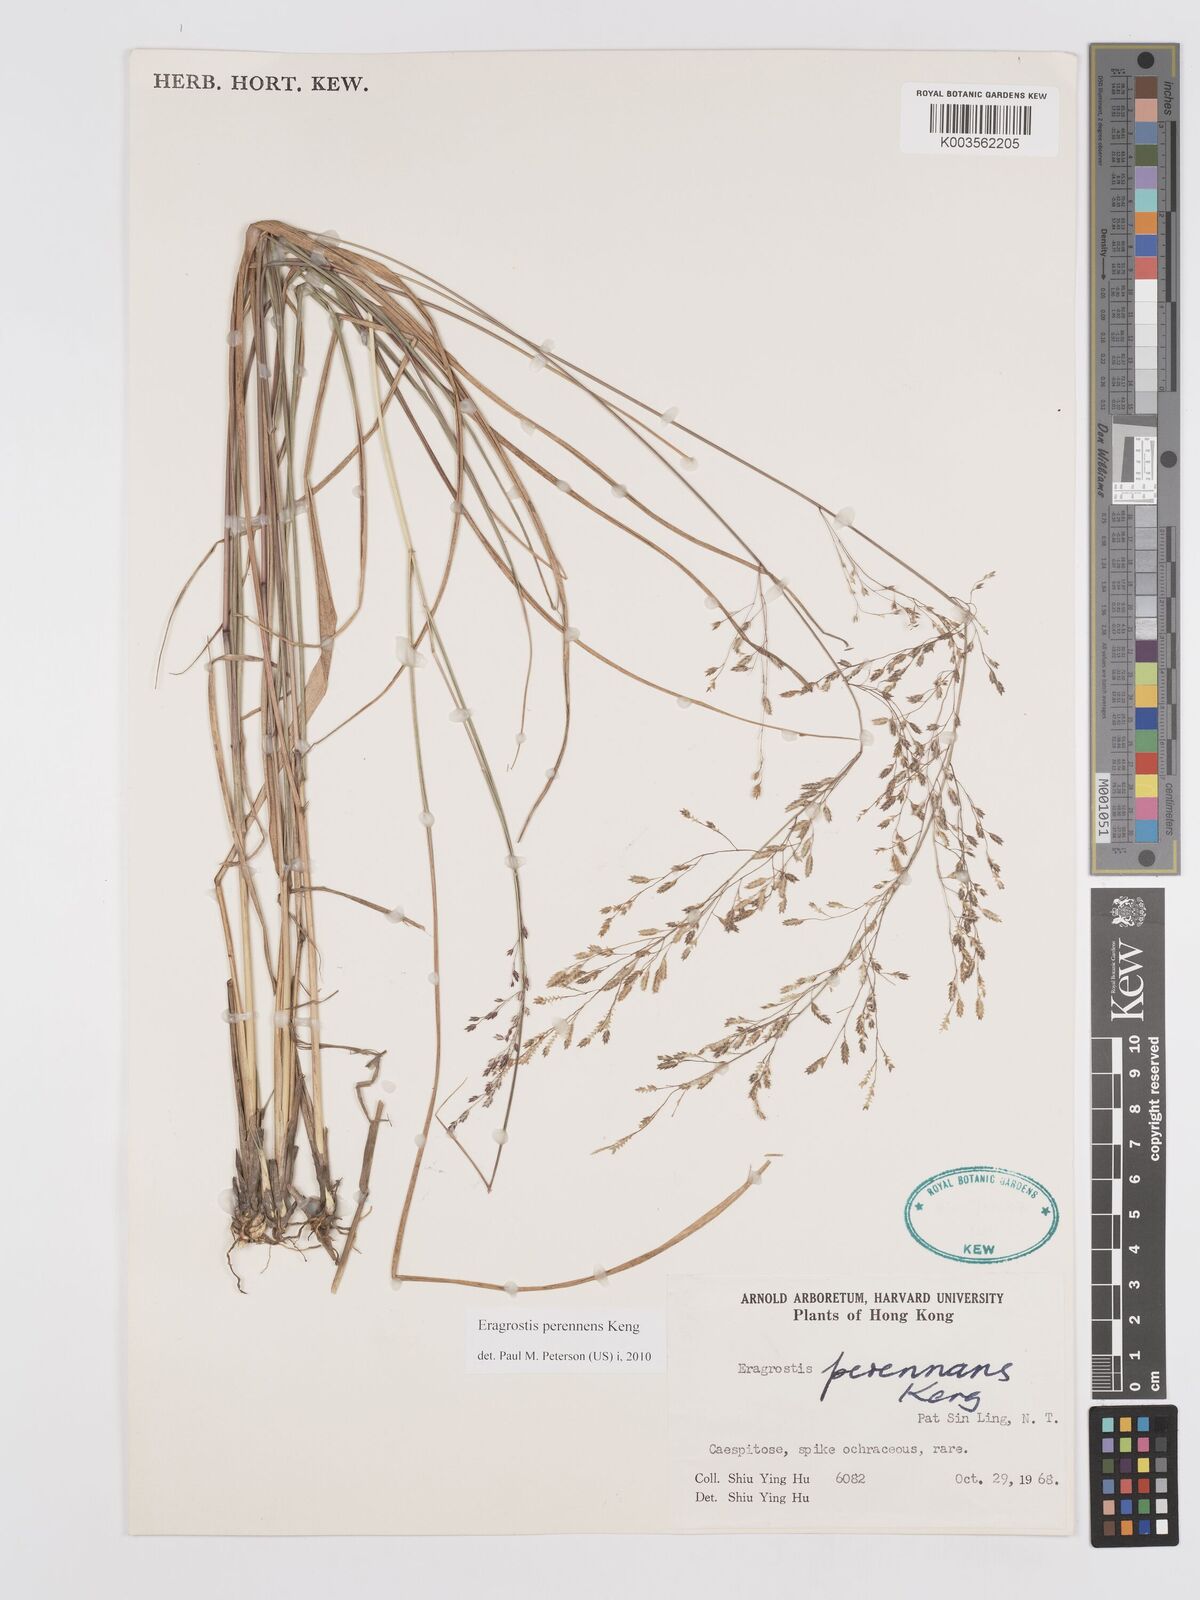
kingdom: Plantae
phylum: Tracheophyta
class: Liliopsida
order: Poales
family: Poaceae
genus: Eragrostis
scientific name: Eragrostis perennans
